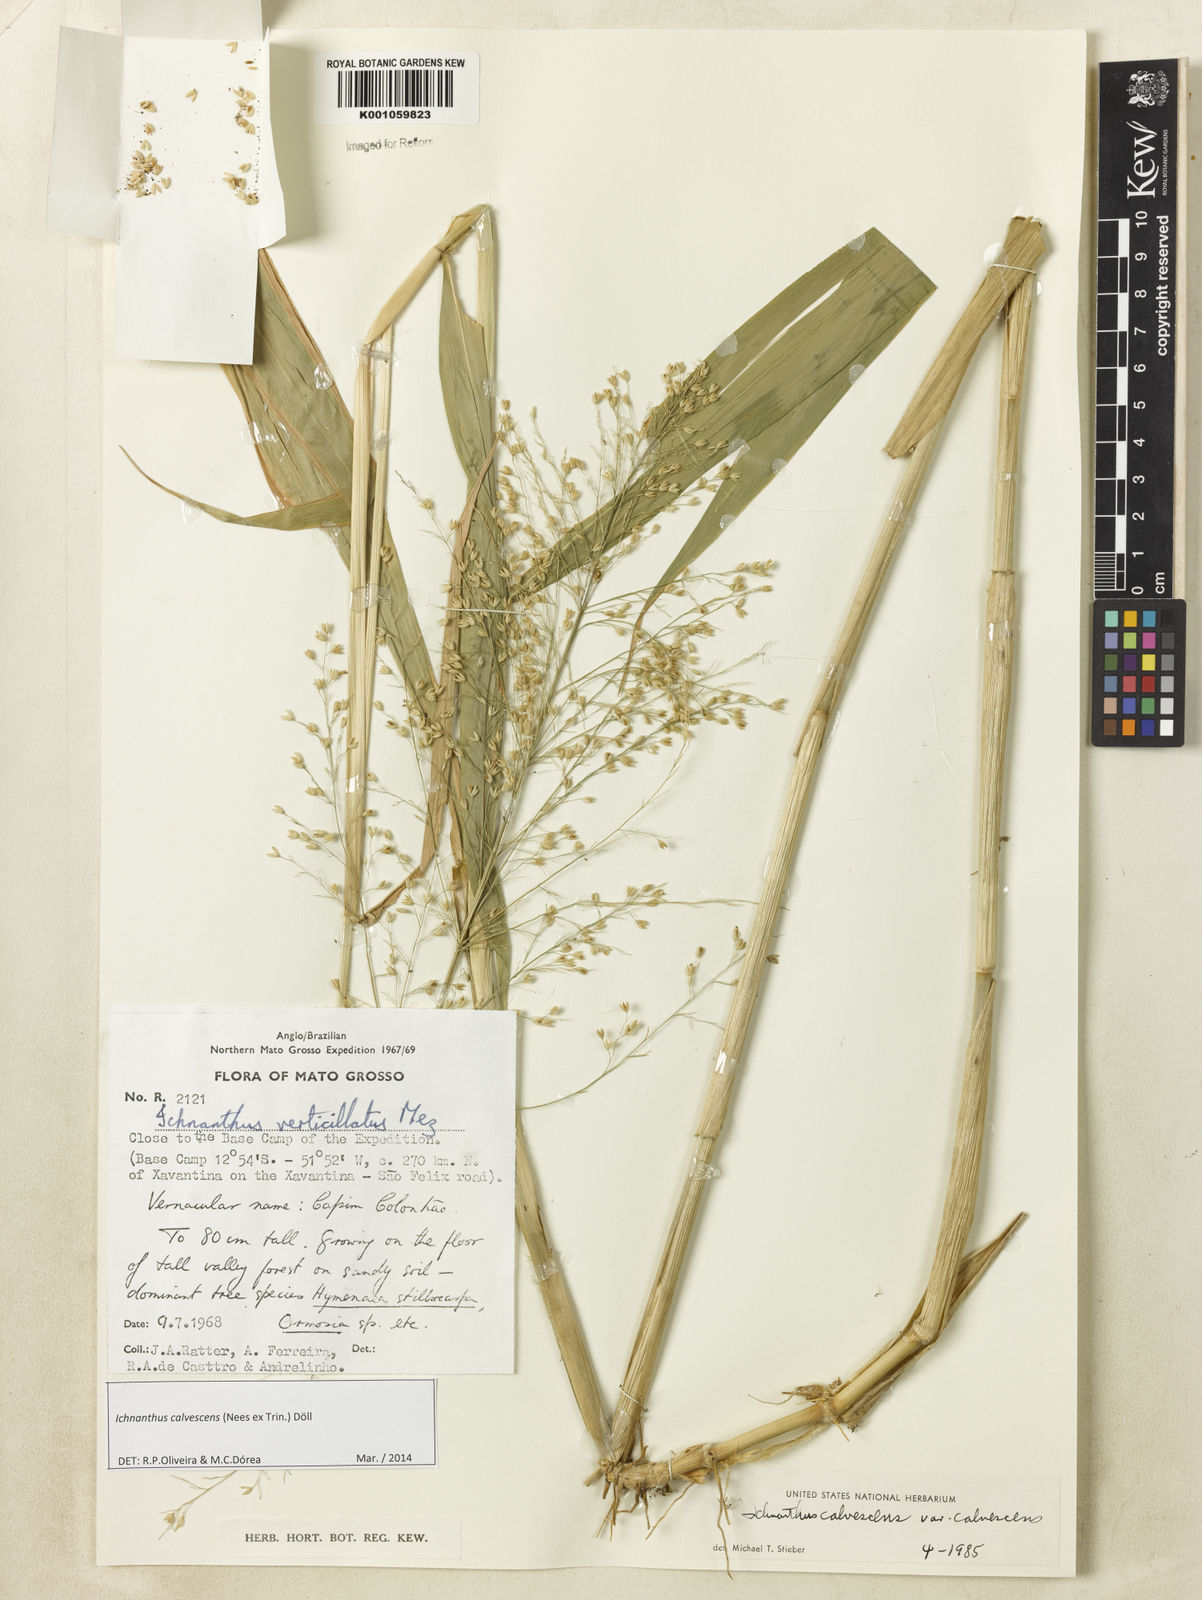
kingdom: Plantae
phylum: Tracheophyta
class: Liliopsida
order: Poales
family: Poaceae
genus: Ichnanthus
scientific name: Ichnanthus
